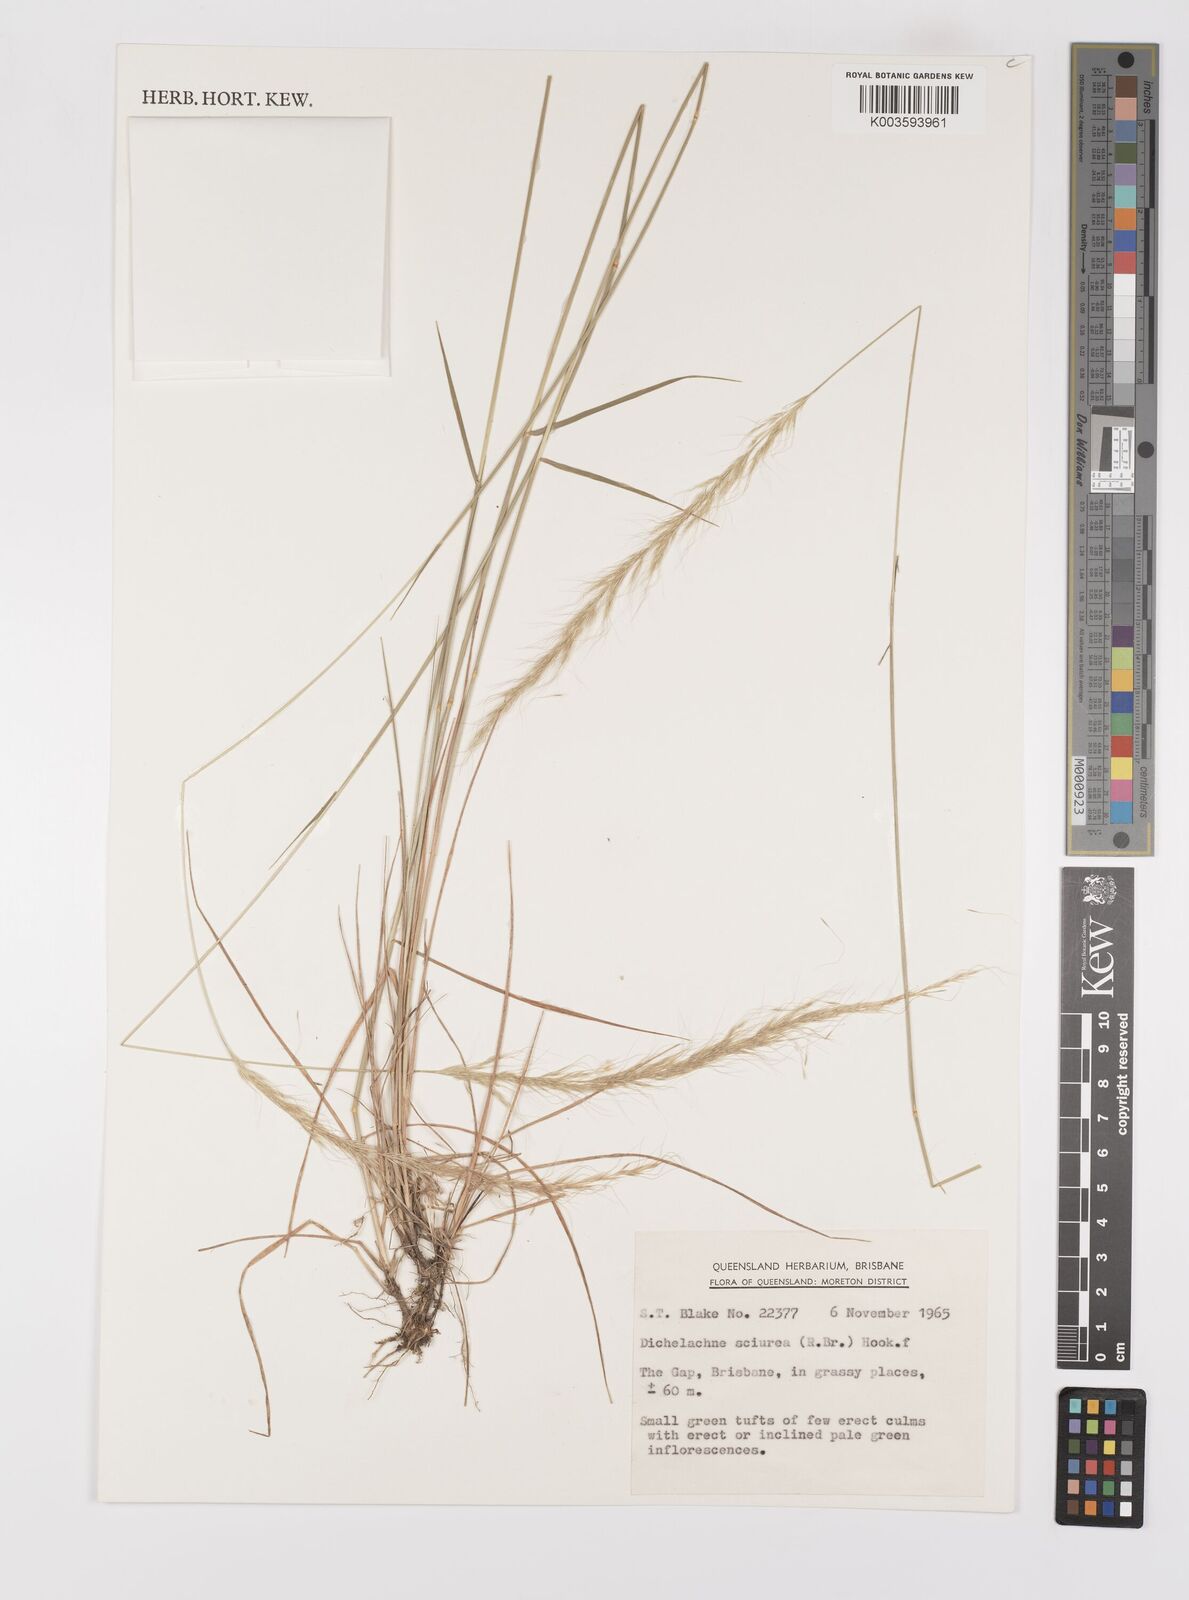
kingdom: Plantae
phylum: Tracheophyta
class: Liliopsida
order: Poales
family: Poaceae
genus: Dichelachne
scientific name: Dichelachne micrantha
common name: Plumegrass
